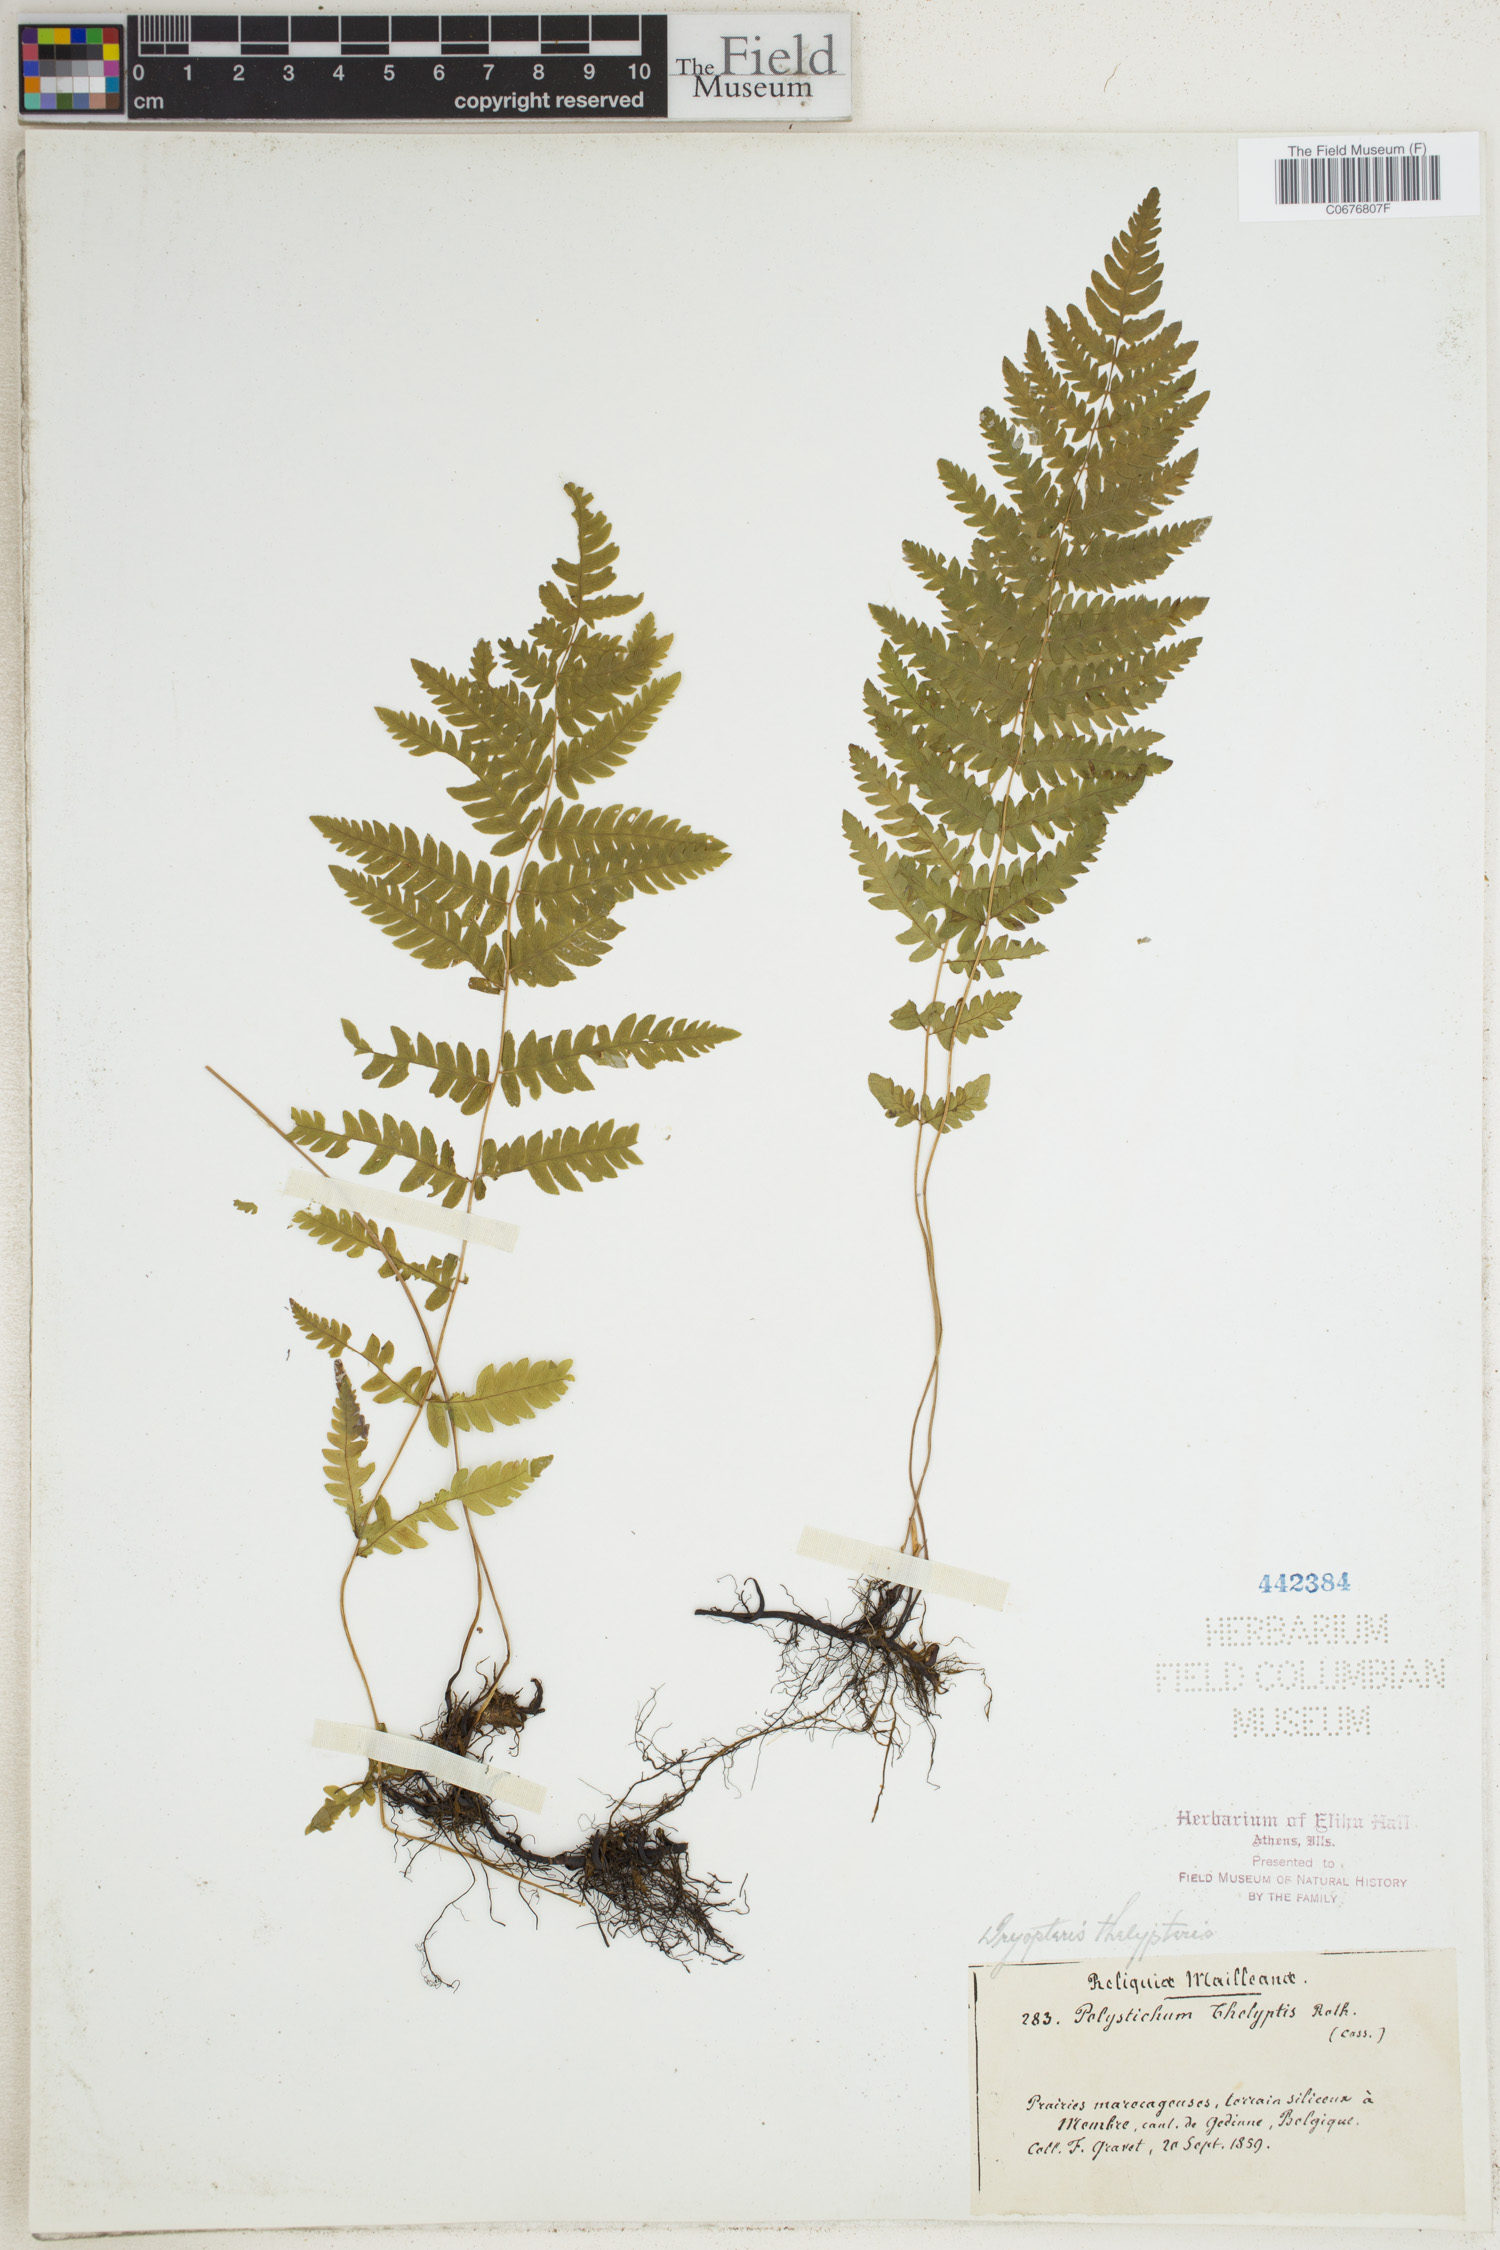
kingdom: Plantae
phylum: Tracheophyta
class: Polypodiopsida
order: Polypodiales
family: Thelypteridaceae
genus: Thelypteris
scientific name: Thelypteris palustris
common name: Marsh fern
